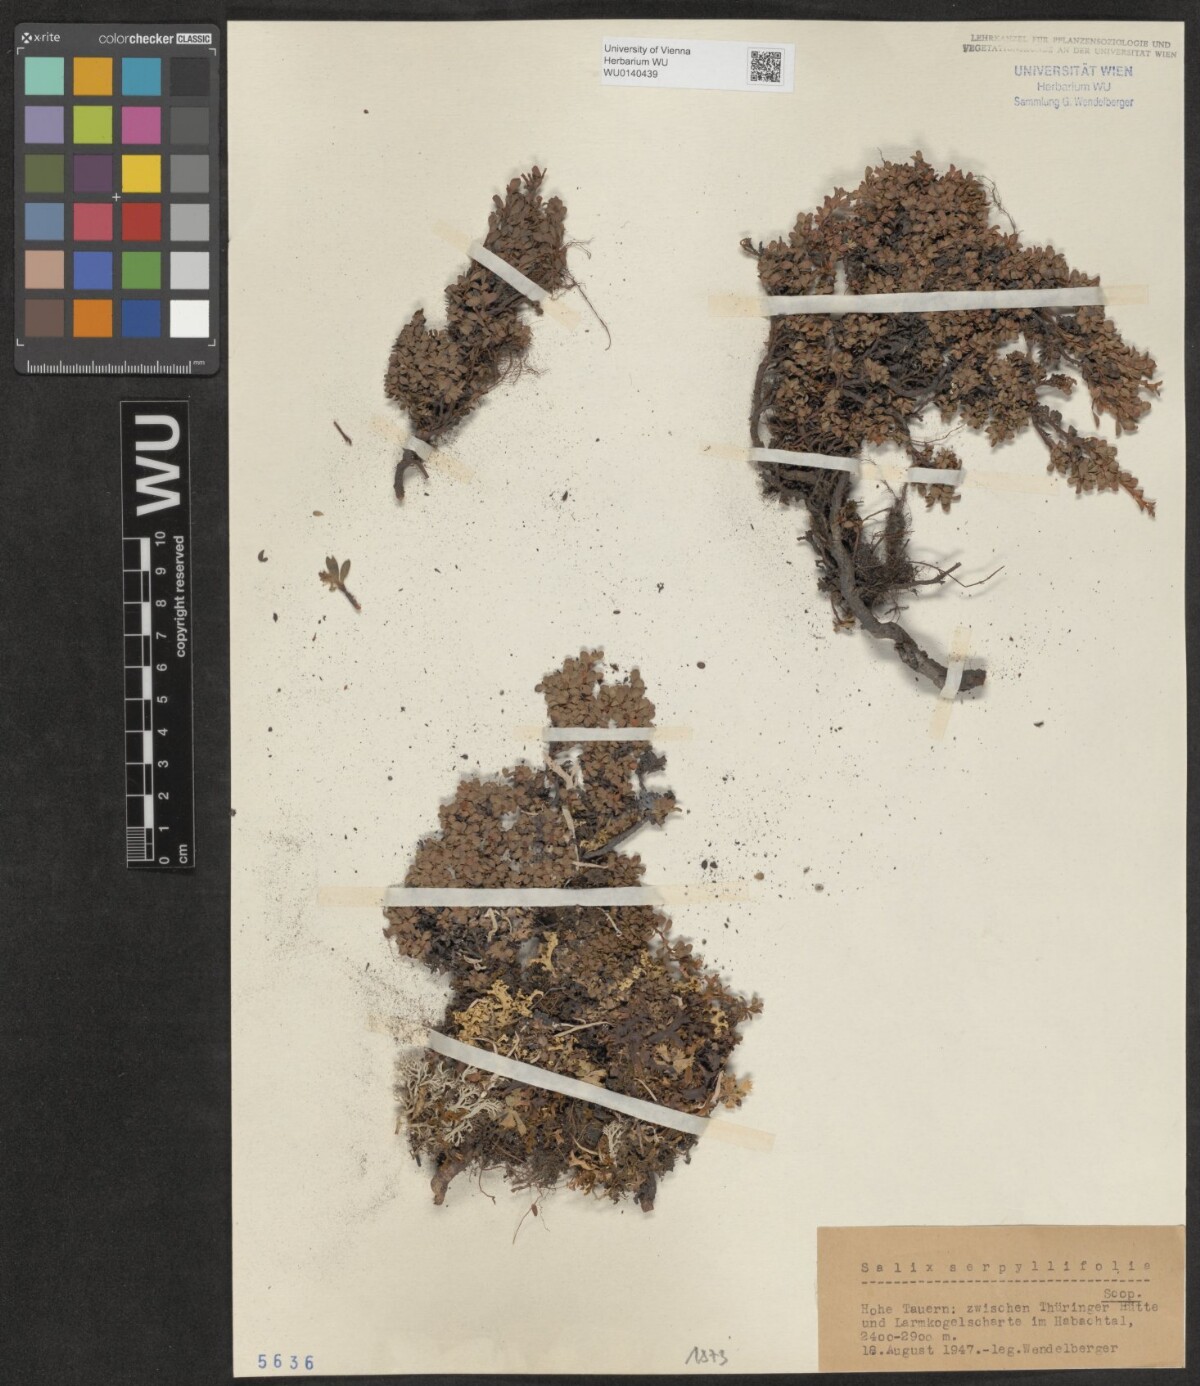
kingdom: Plantae
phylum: Tracheophyta
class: Magnoliopsida
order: Malpighiales
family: Salicaceae
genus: Salix
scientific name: Salix serpillifolia
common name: Thyme-leaf willow
